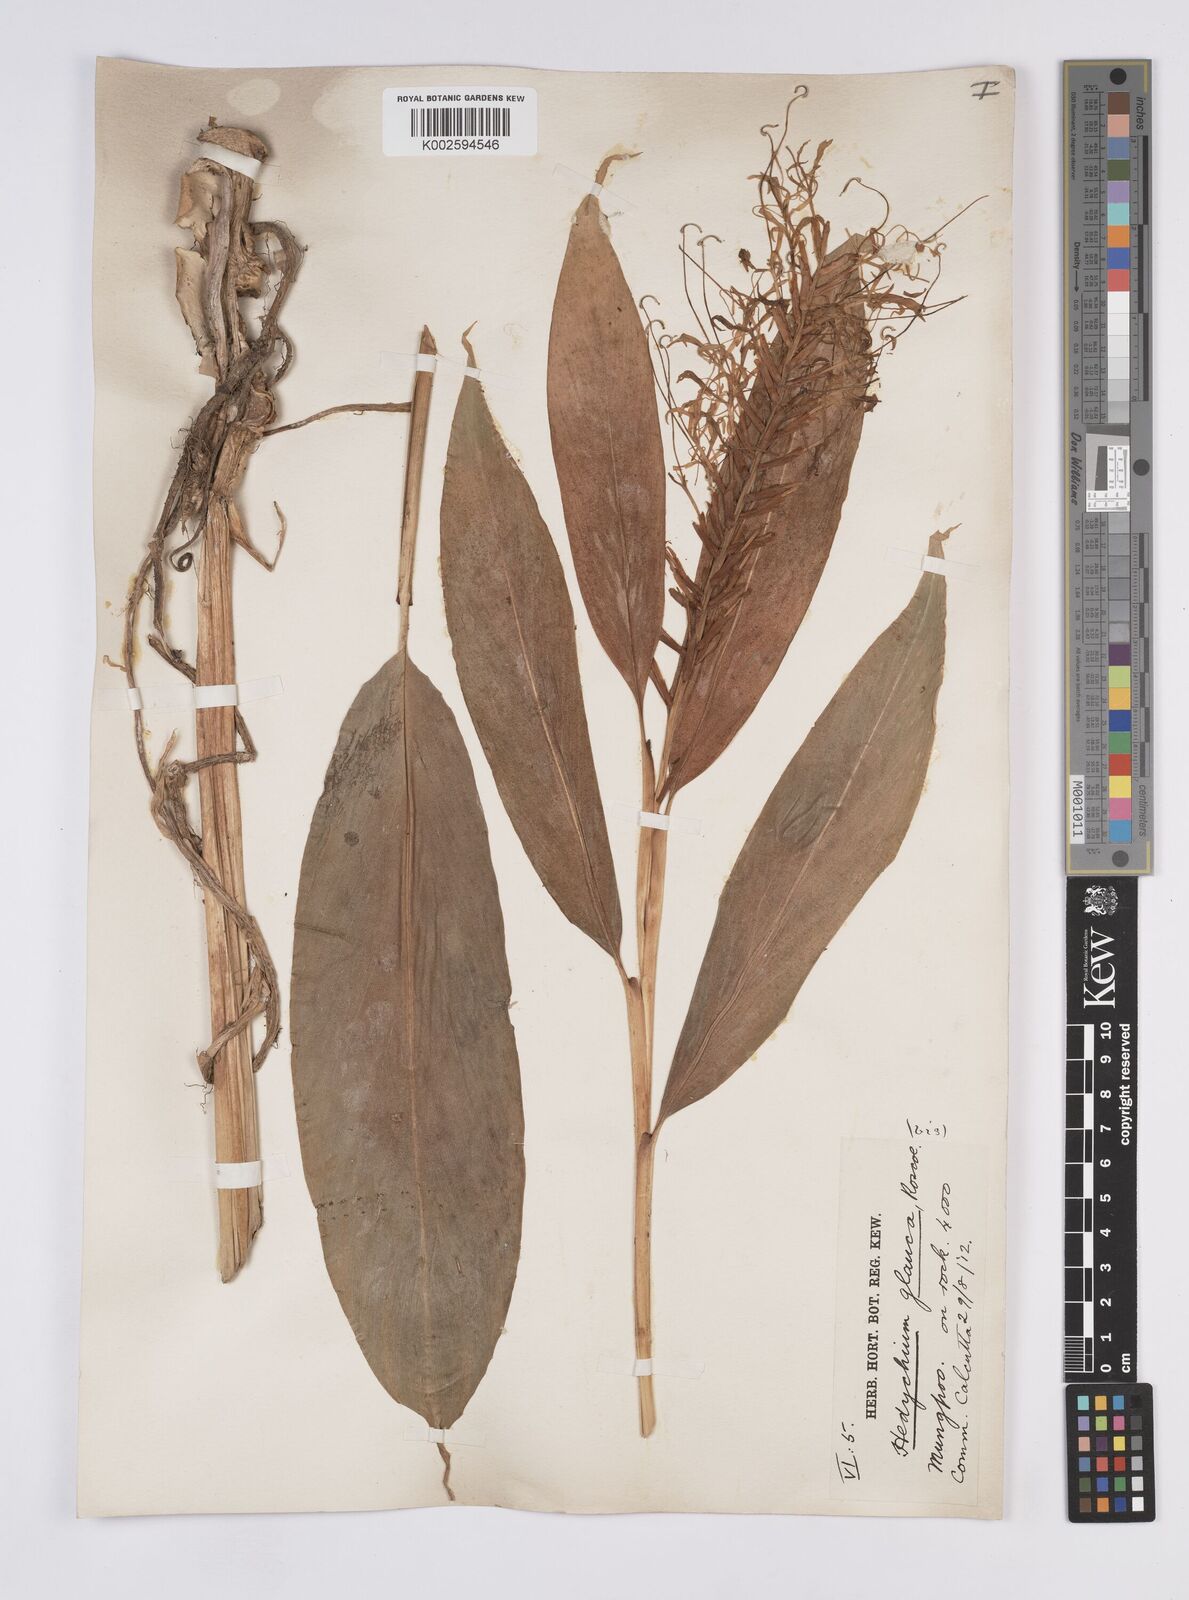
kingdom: Plantae
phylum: Tracheophyta
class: Liliopsida
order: Zingiberales
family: Zingiberaceae
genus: Hedychium
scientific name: Hedychium glaucum
